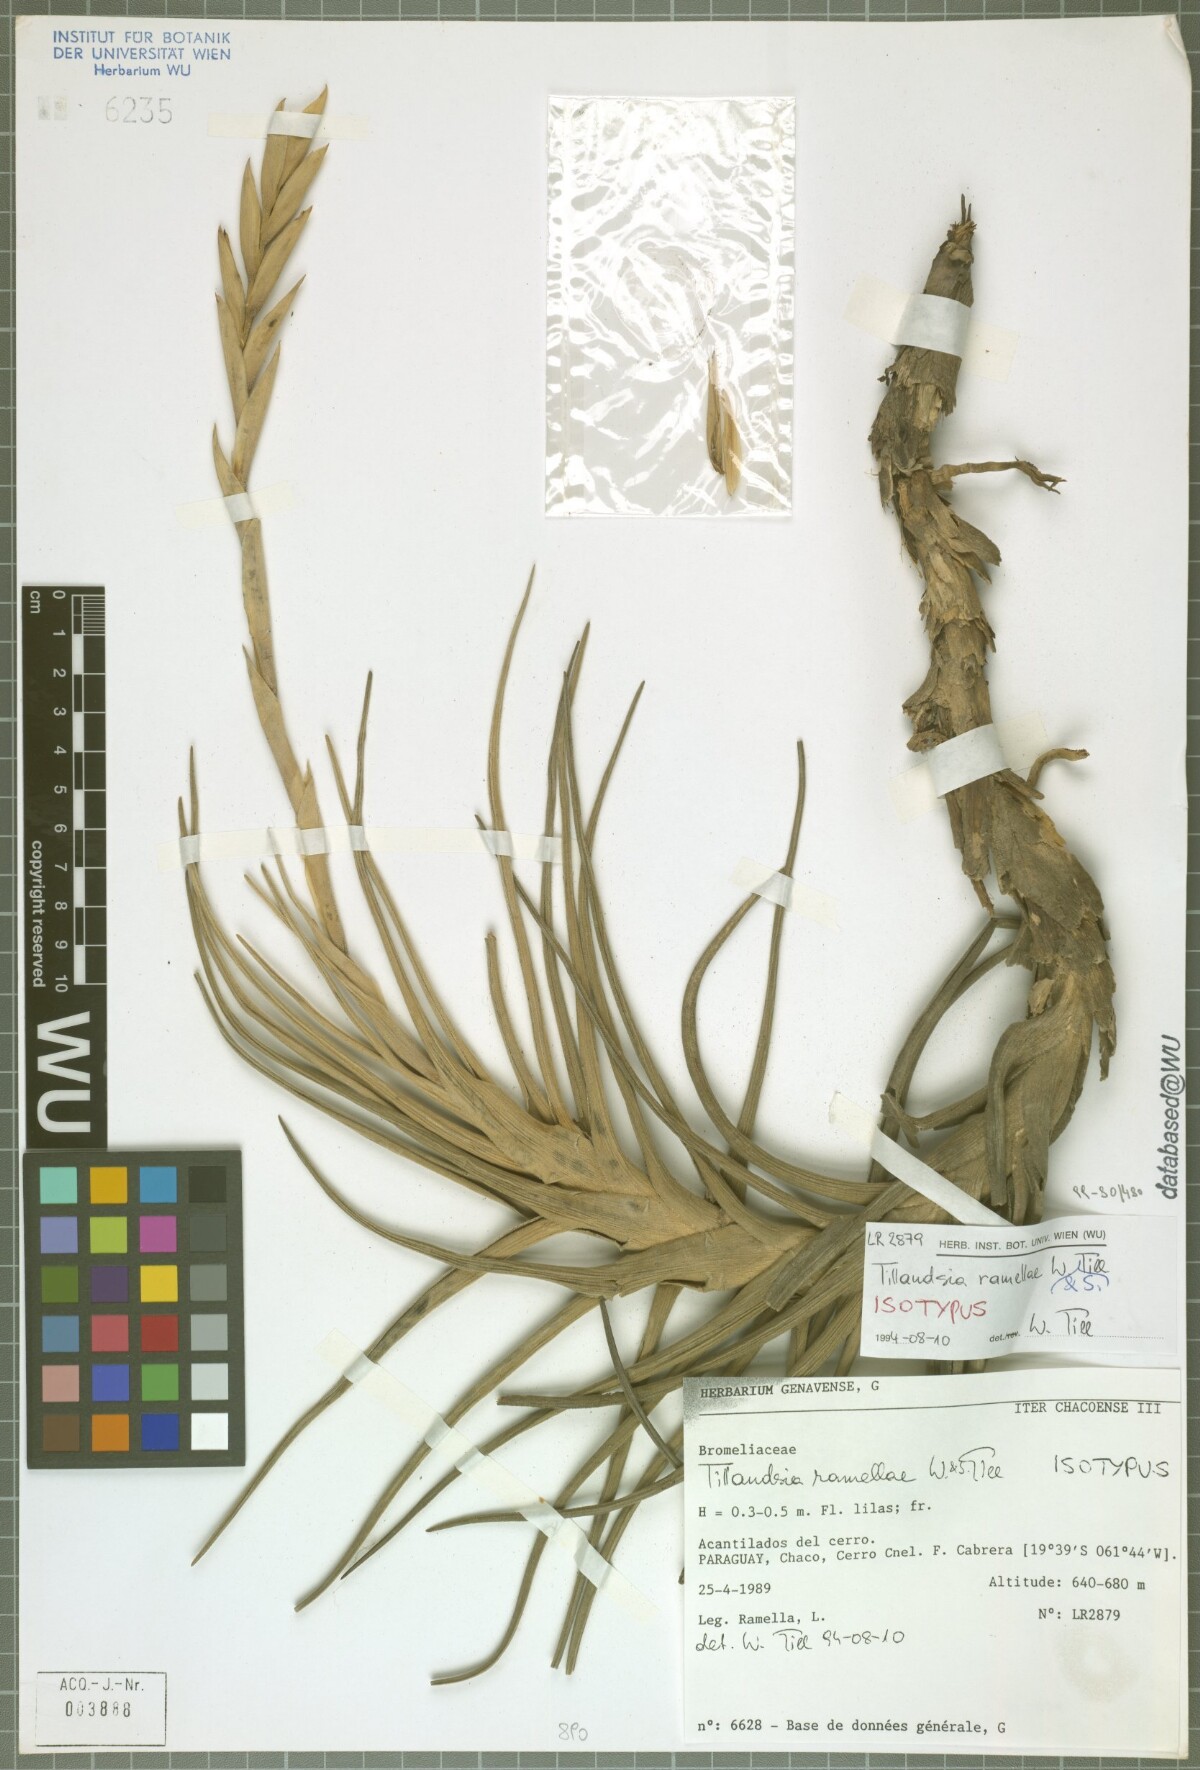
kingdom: Plantae
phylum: Tracheophyta
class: Liliopsida
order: Poales
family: Bromeliaceae
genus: Tillandsia
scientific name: Tillandsia ramellae
